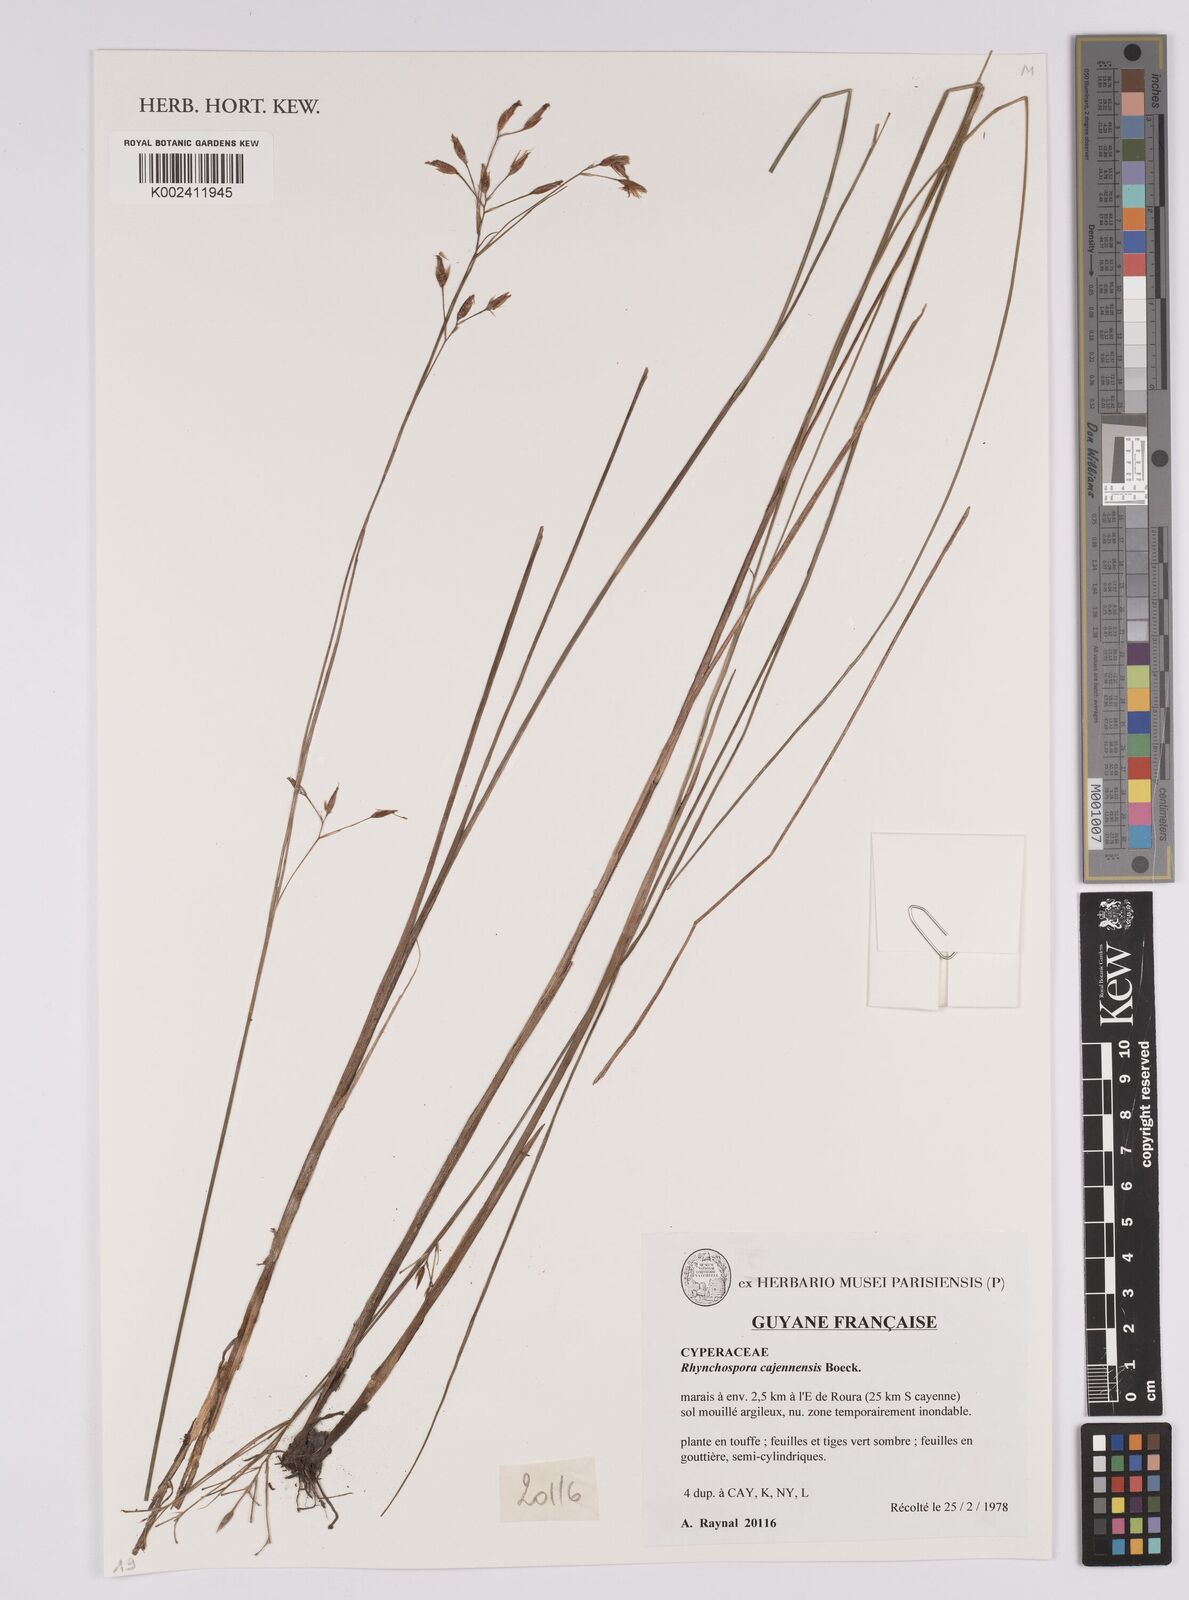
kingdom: Plantae
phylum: Tracheophyta
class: Liliopsida
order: Poales
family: Cyperaceae
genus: Rhynchospora
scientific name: Rhynchospora cajennensis
